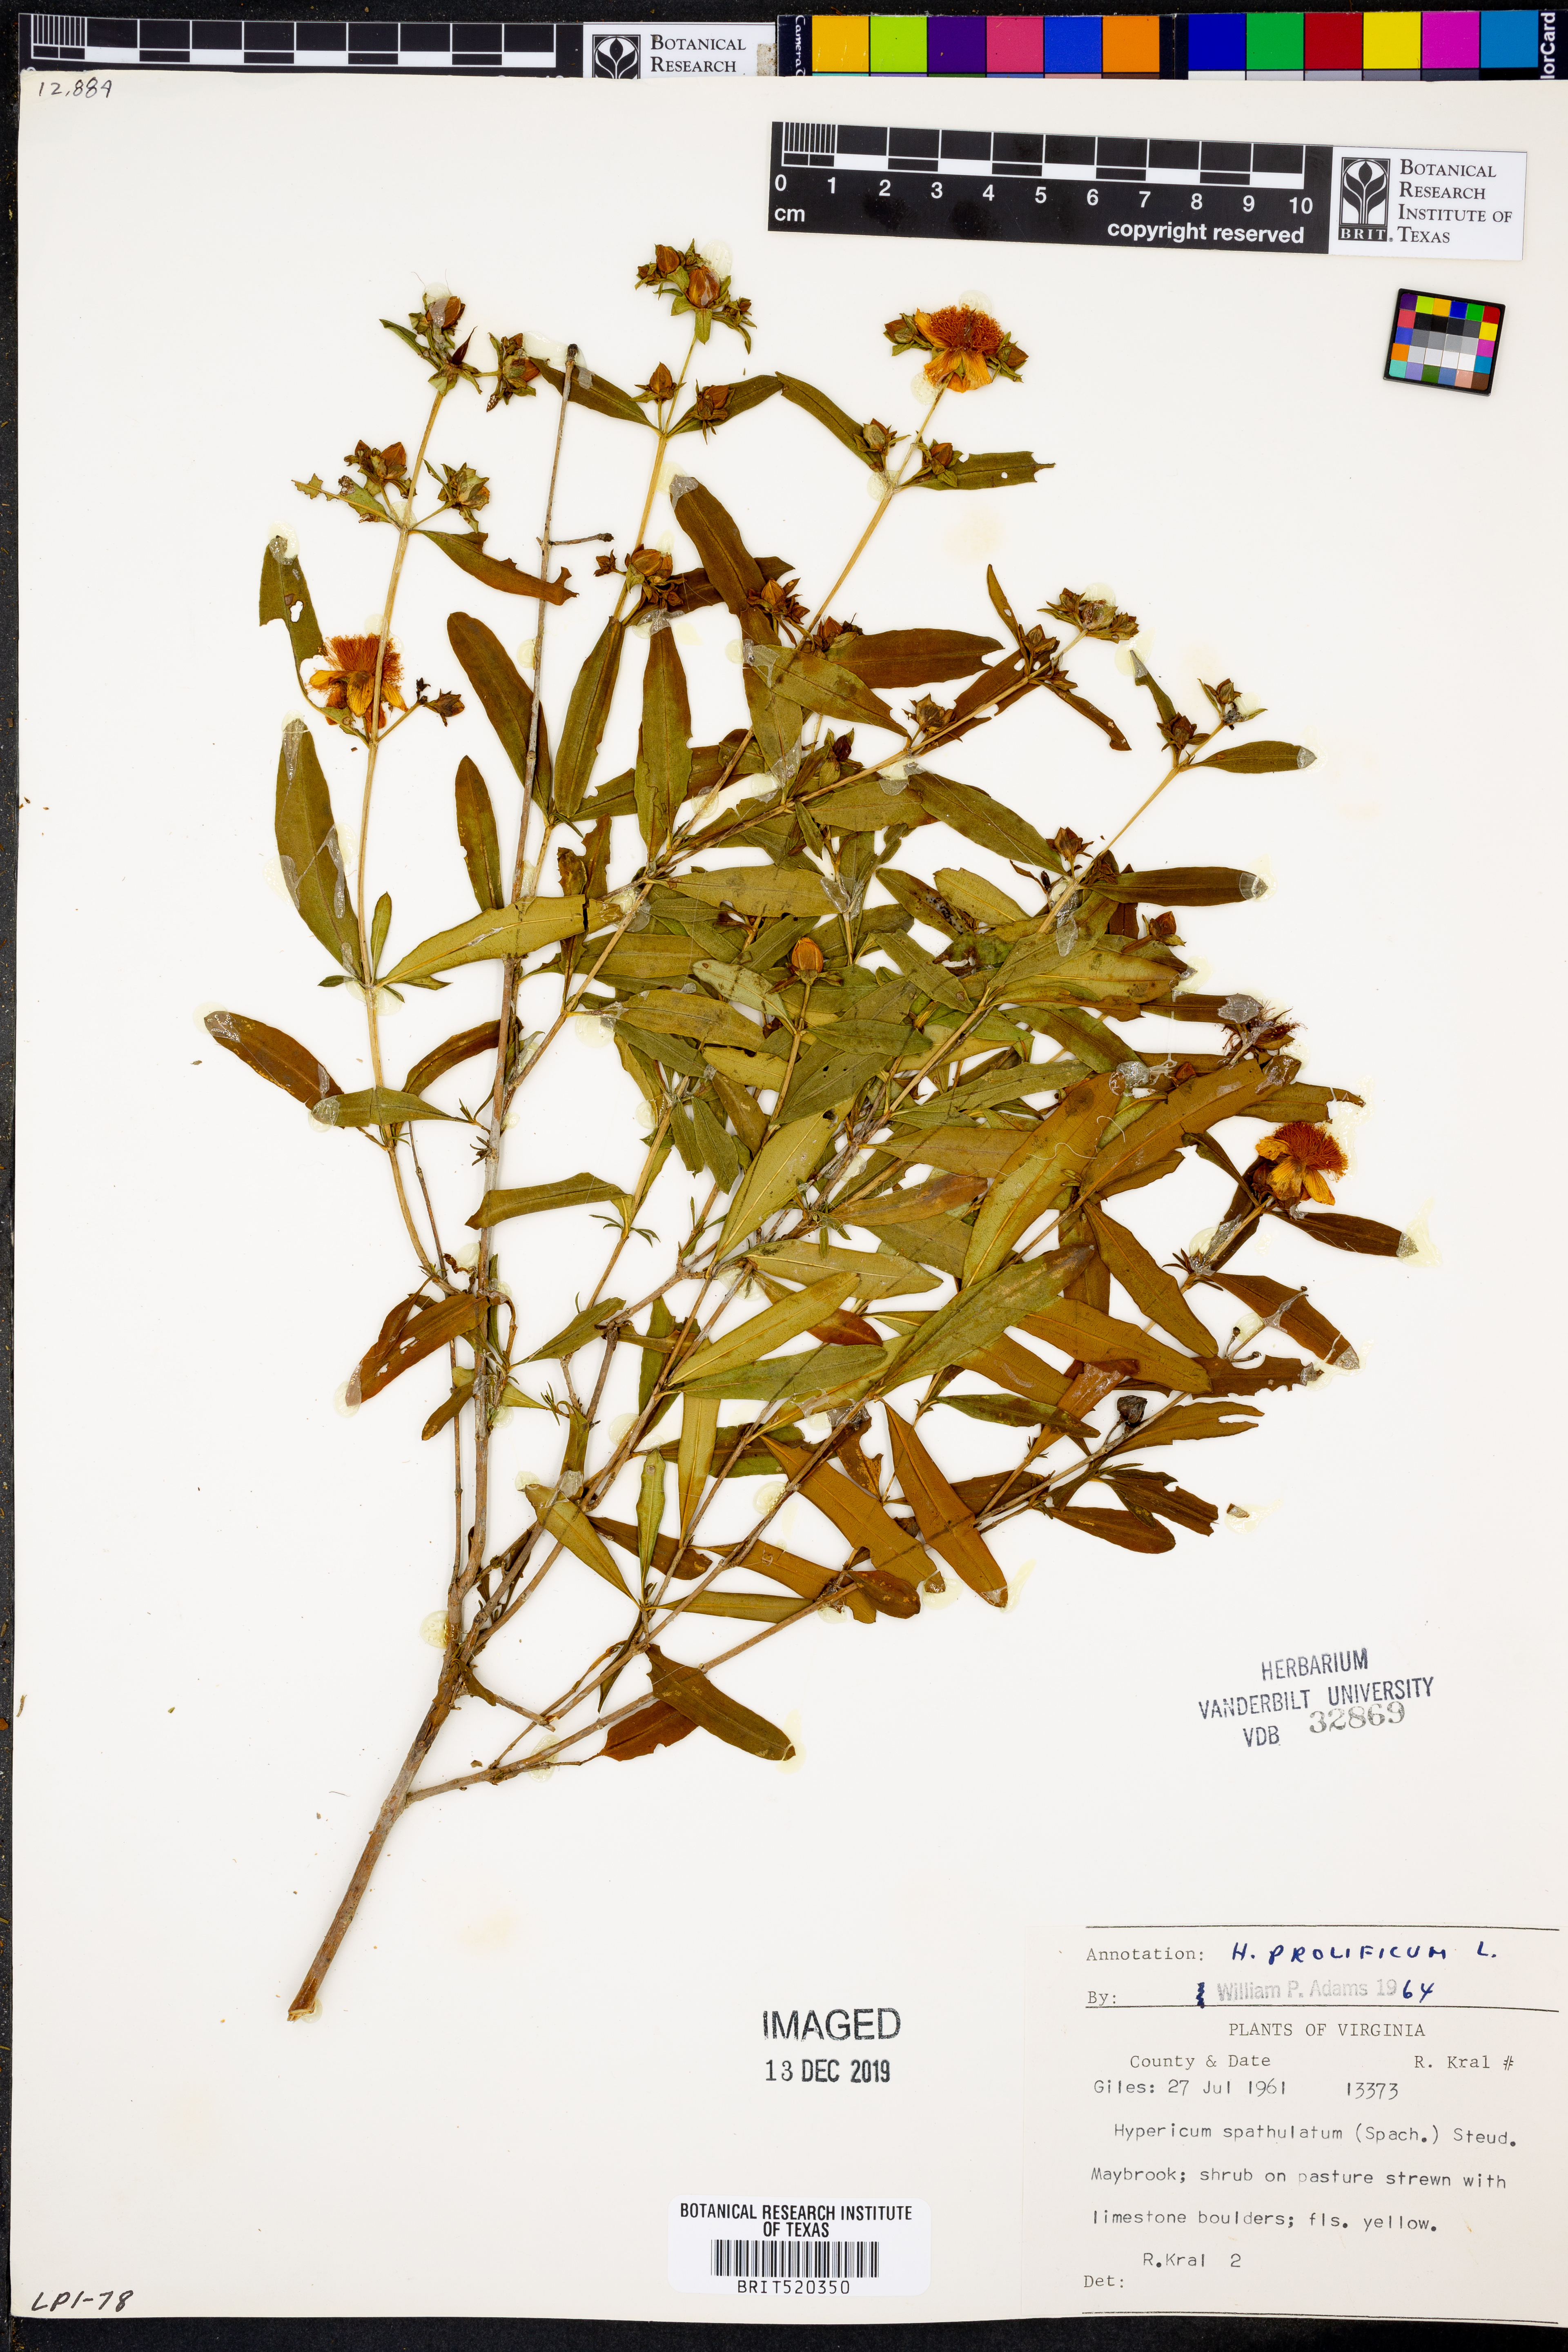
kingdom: Plantae
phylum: Tracheophyta
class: Magnoliopsida
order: Malpighiales
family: Hypericaceae
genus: Hypericum
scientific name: Hypericum prolificum
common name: Shrubby st. john's-wort
